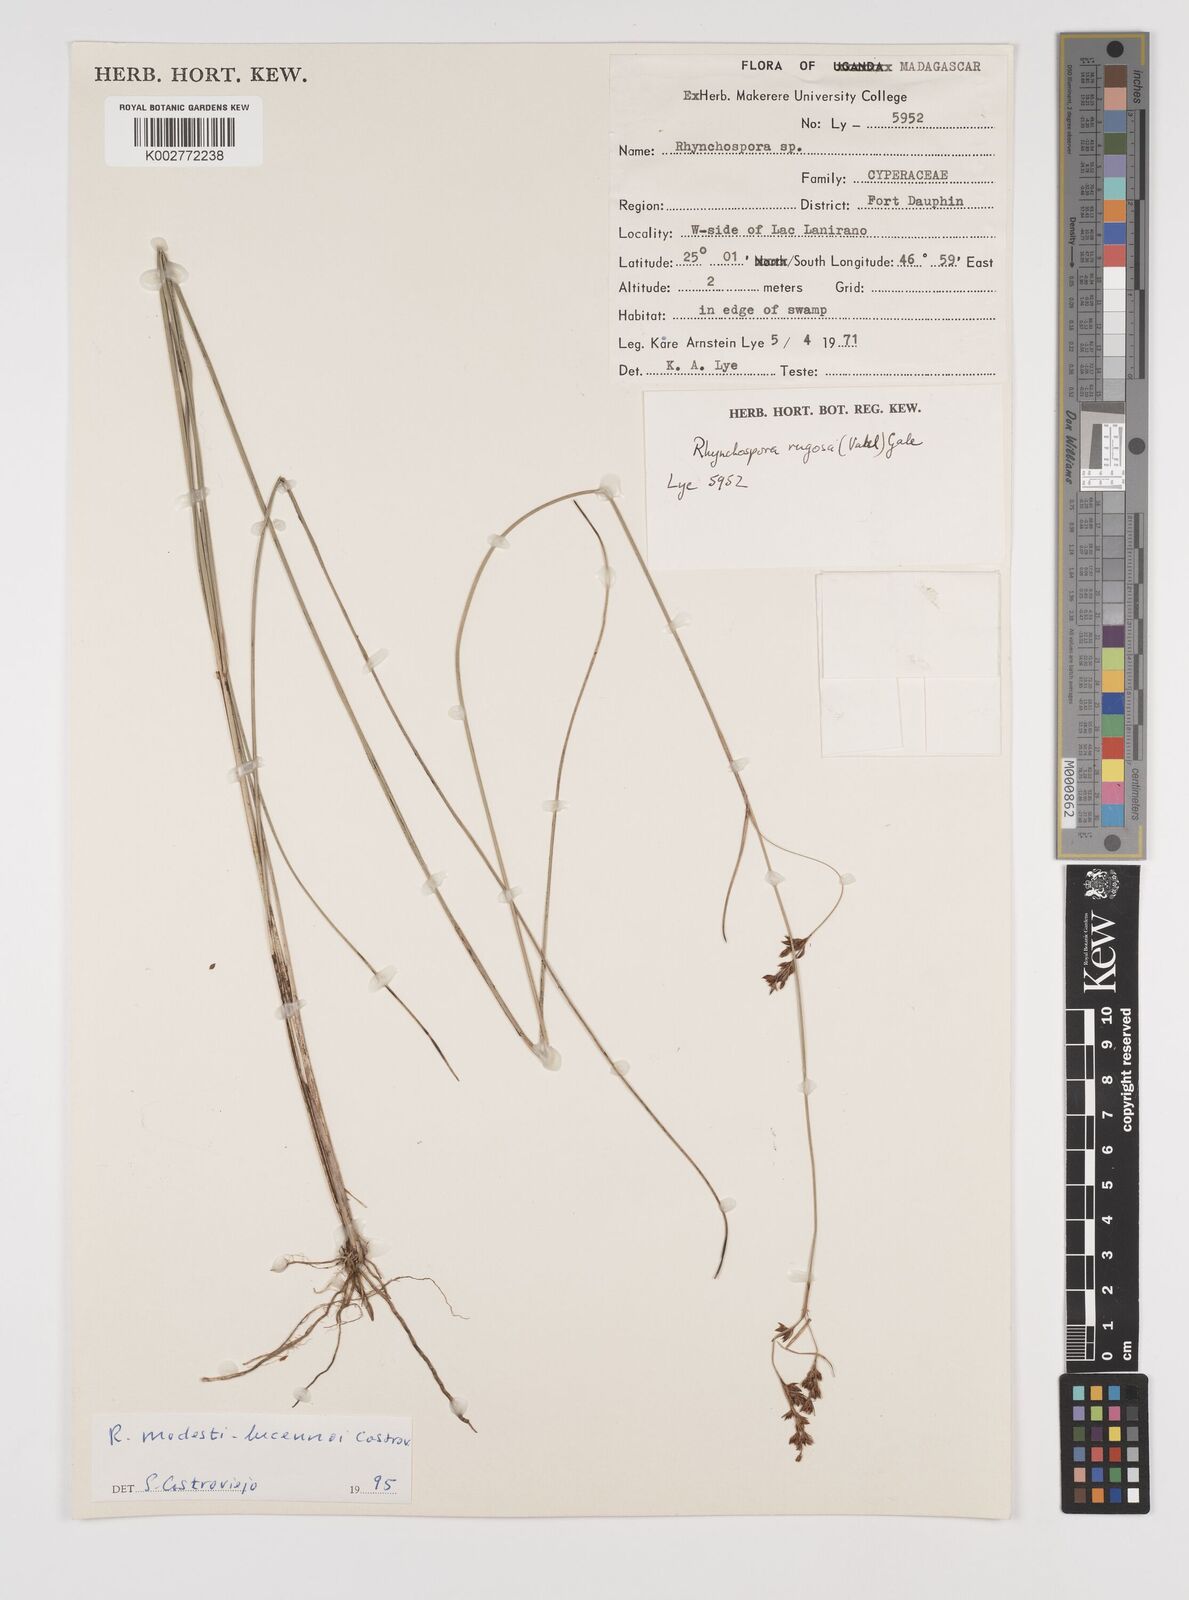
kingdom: Plantae
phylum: Tracheophyta
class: Liliopsida
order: Poales
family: Cyperaceae
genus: Rhynchospora
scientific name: Rhynchospora modesti-lucennoi
